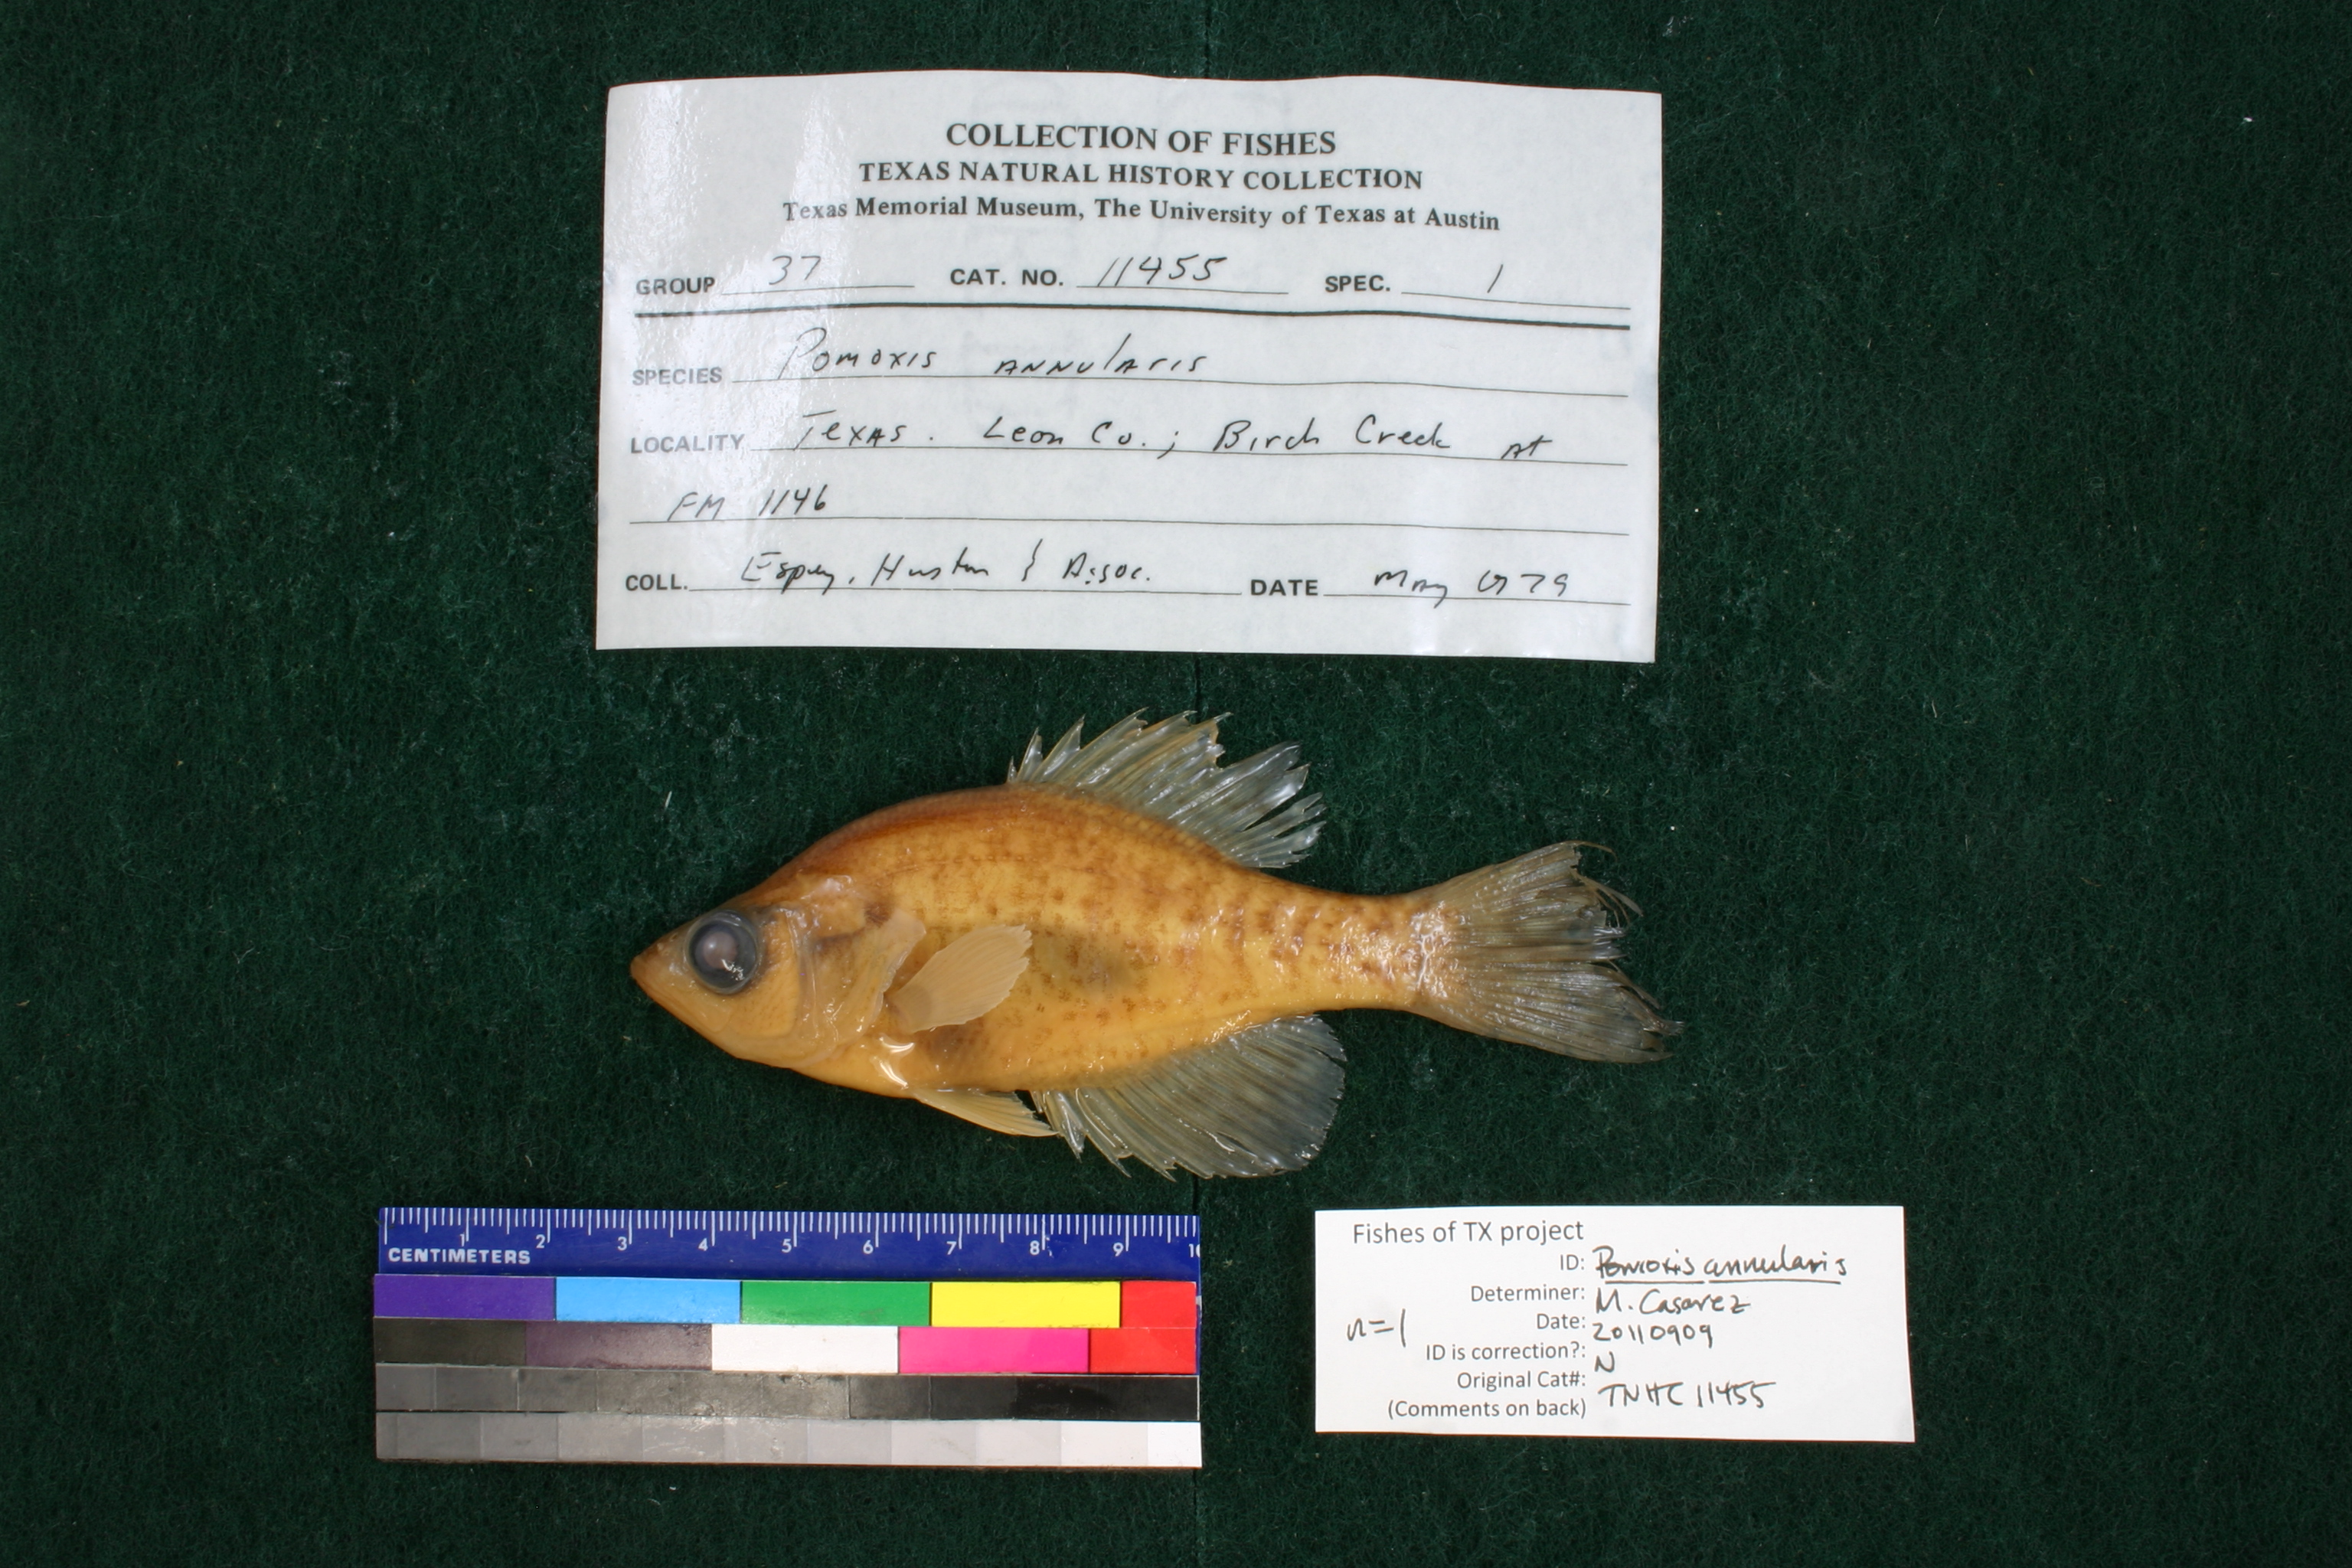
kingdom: Animalia
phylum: Chordata
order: Perciformes
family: Centrarchidae
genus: Pomoxis
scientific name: Pomoxis annularis
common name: White crappie
